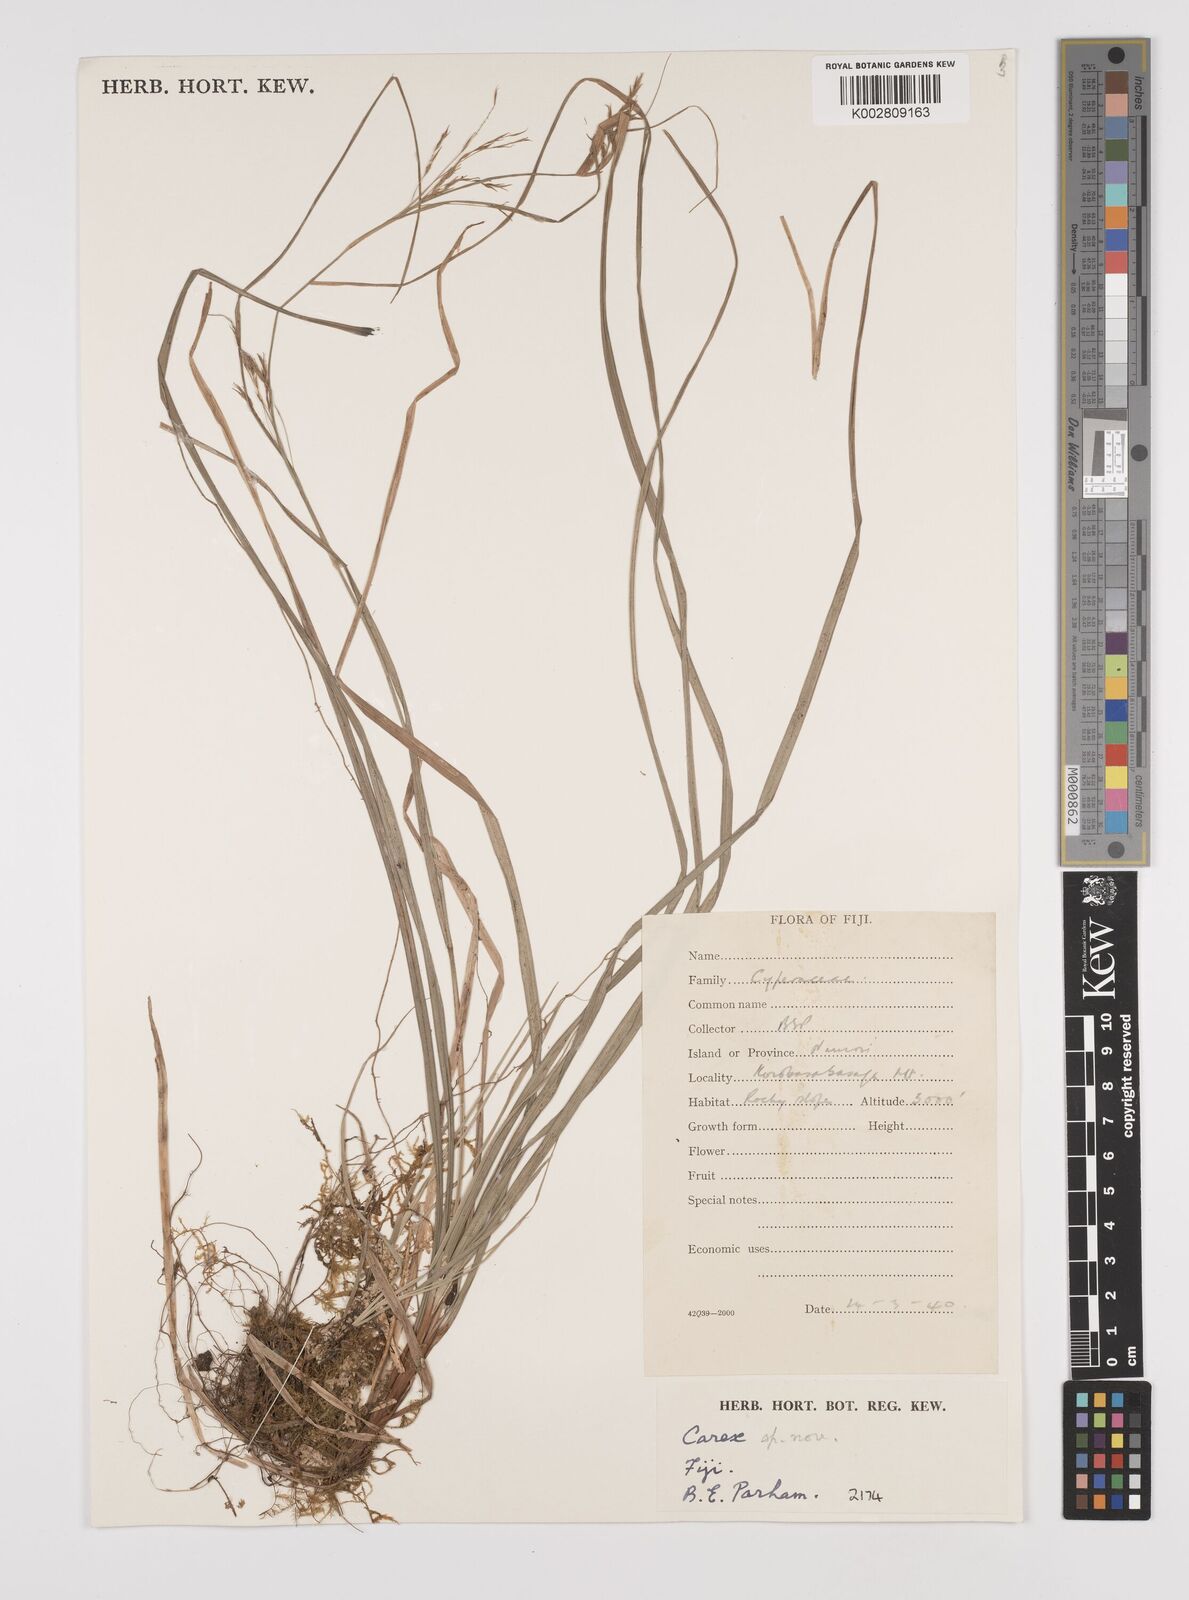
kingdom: Plantae
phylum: Tracheophyta
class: Liliopsida
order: Poales
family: Cyperaceae
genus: Carex
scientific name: Carex
